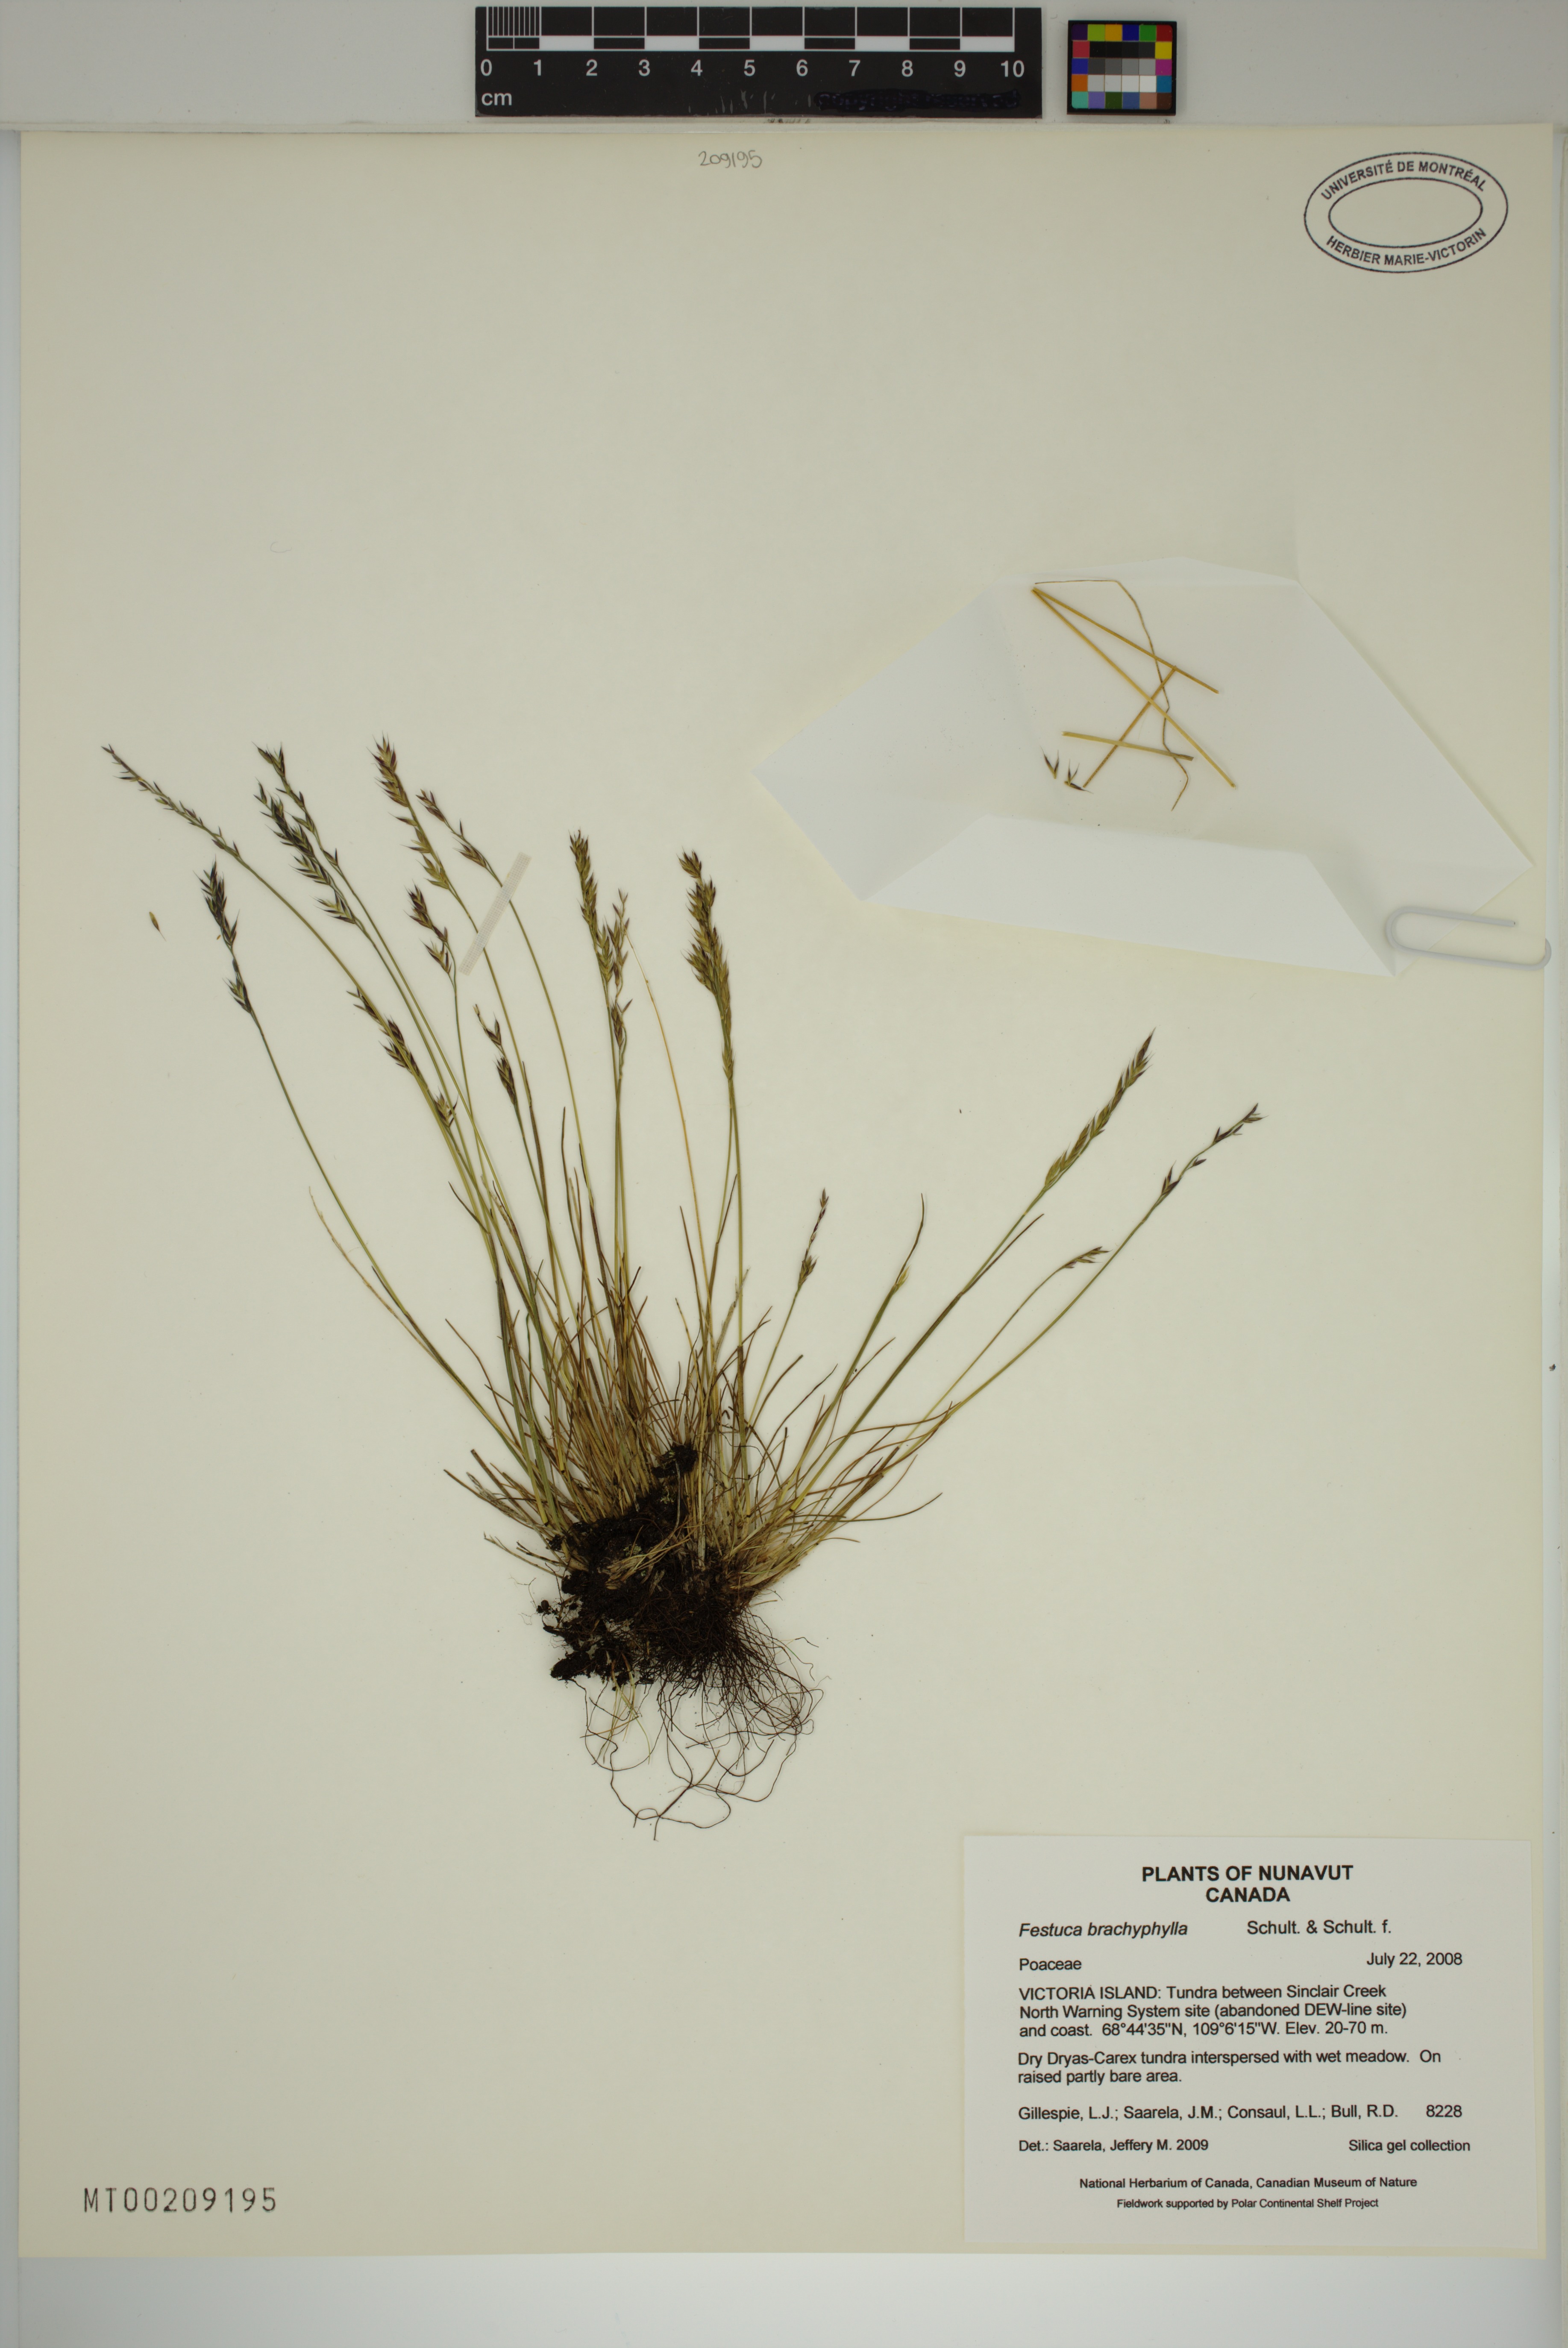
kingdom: Plantae
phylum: Tracheophyta
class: Liliopsida
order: Poales
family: Poaceae
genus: Festuca
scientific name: Festuca brachyphylla
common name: Alpine fescue
